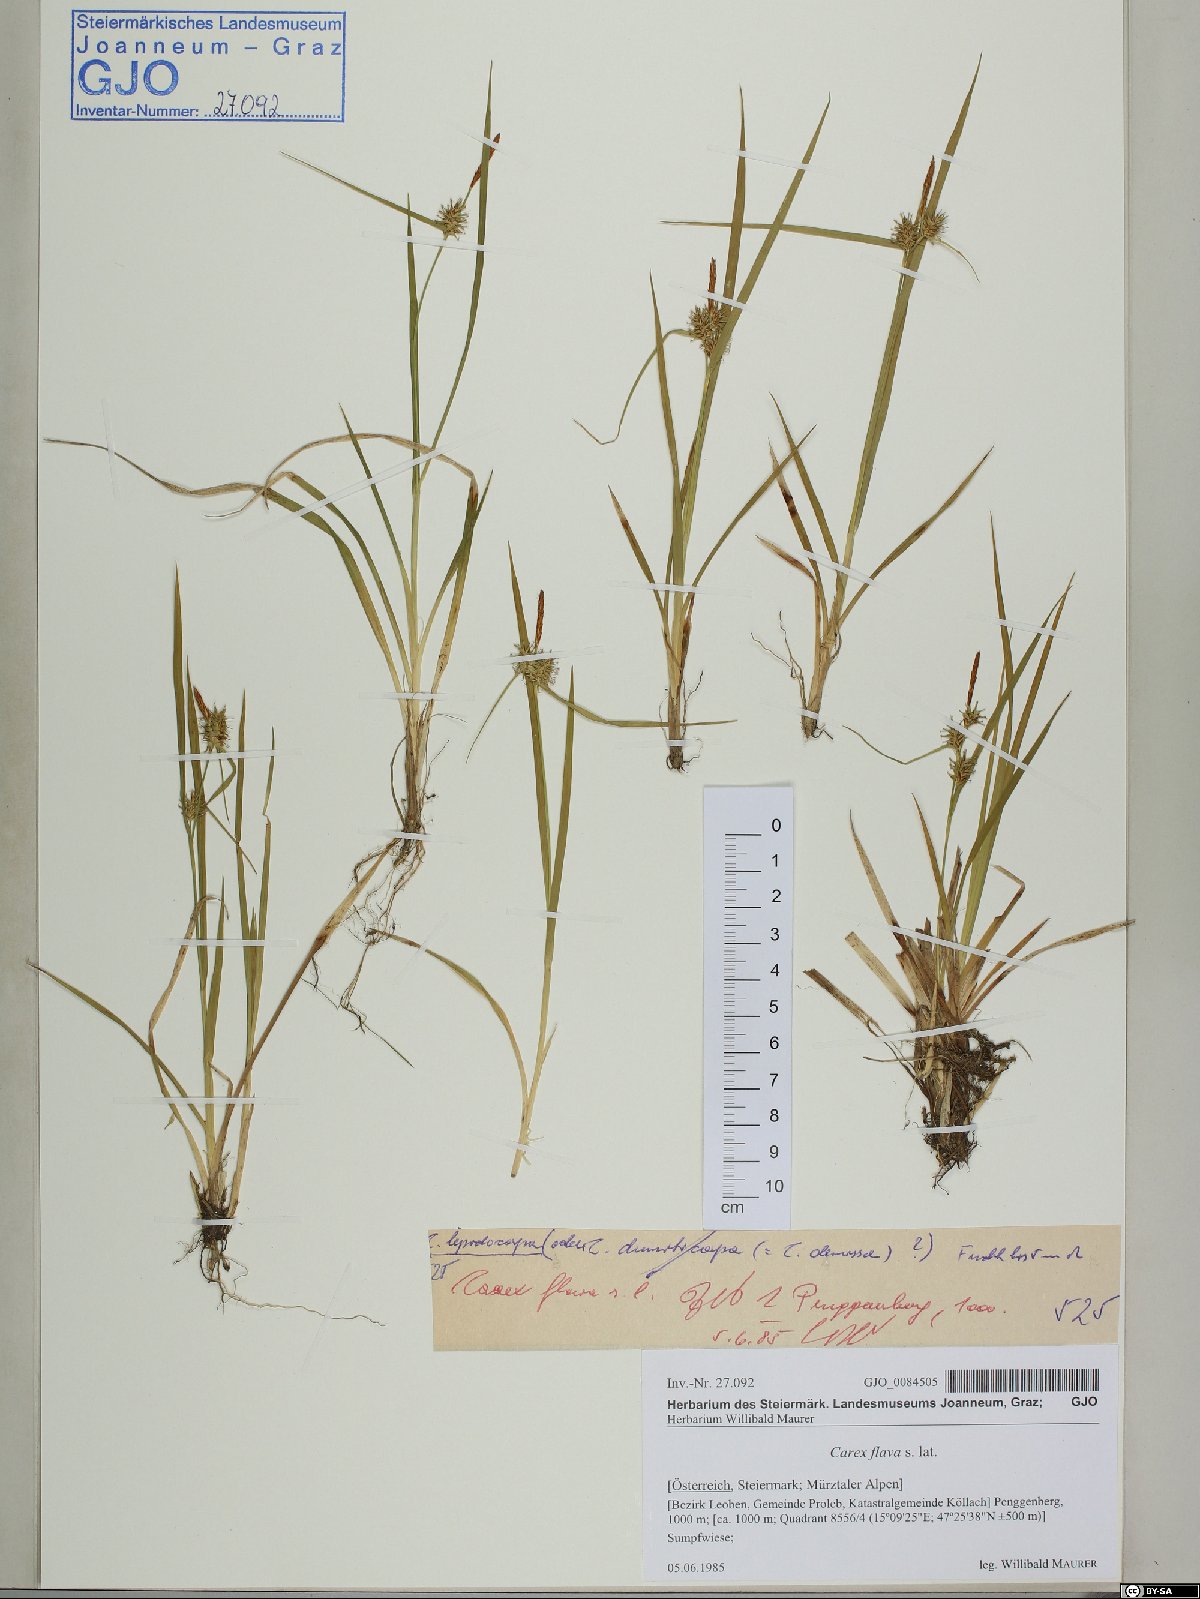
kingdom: Plantae
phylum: Tracheophyta
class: Liliopsida
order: Poales
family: Cyperaceae
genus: Carex
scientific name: Carex flava
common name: Large yellow-sedge
